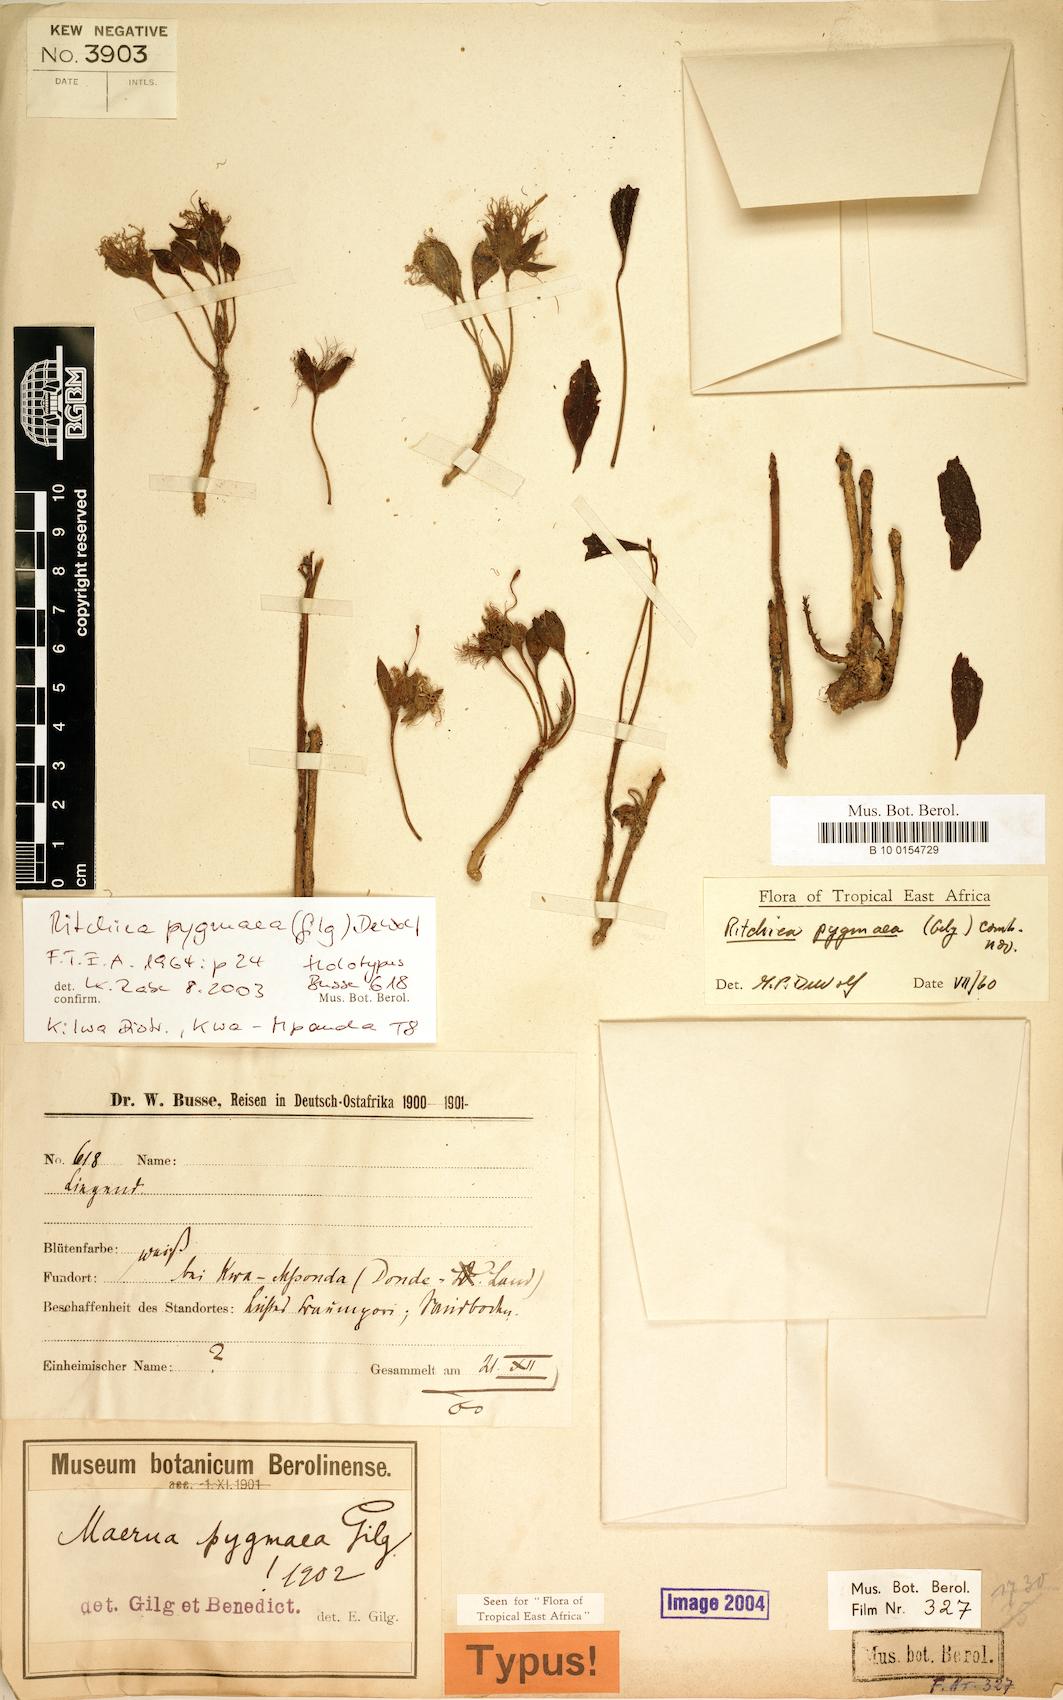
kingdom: Plantae
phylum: Tracheophyta
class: Magnoliopsida
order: Brassicales
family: Capparaceae
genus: Ritchiea
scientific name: Ritchiea pygmaea
